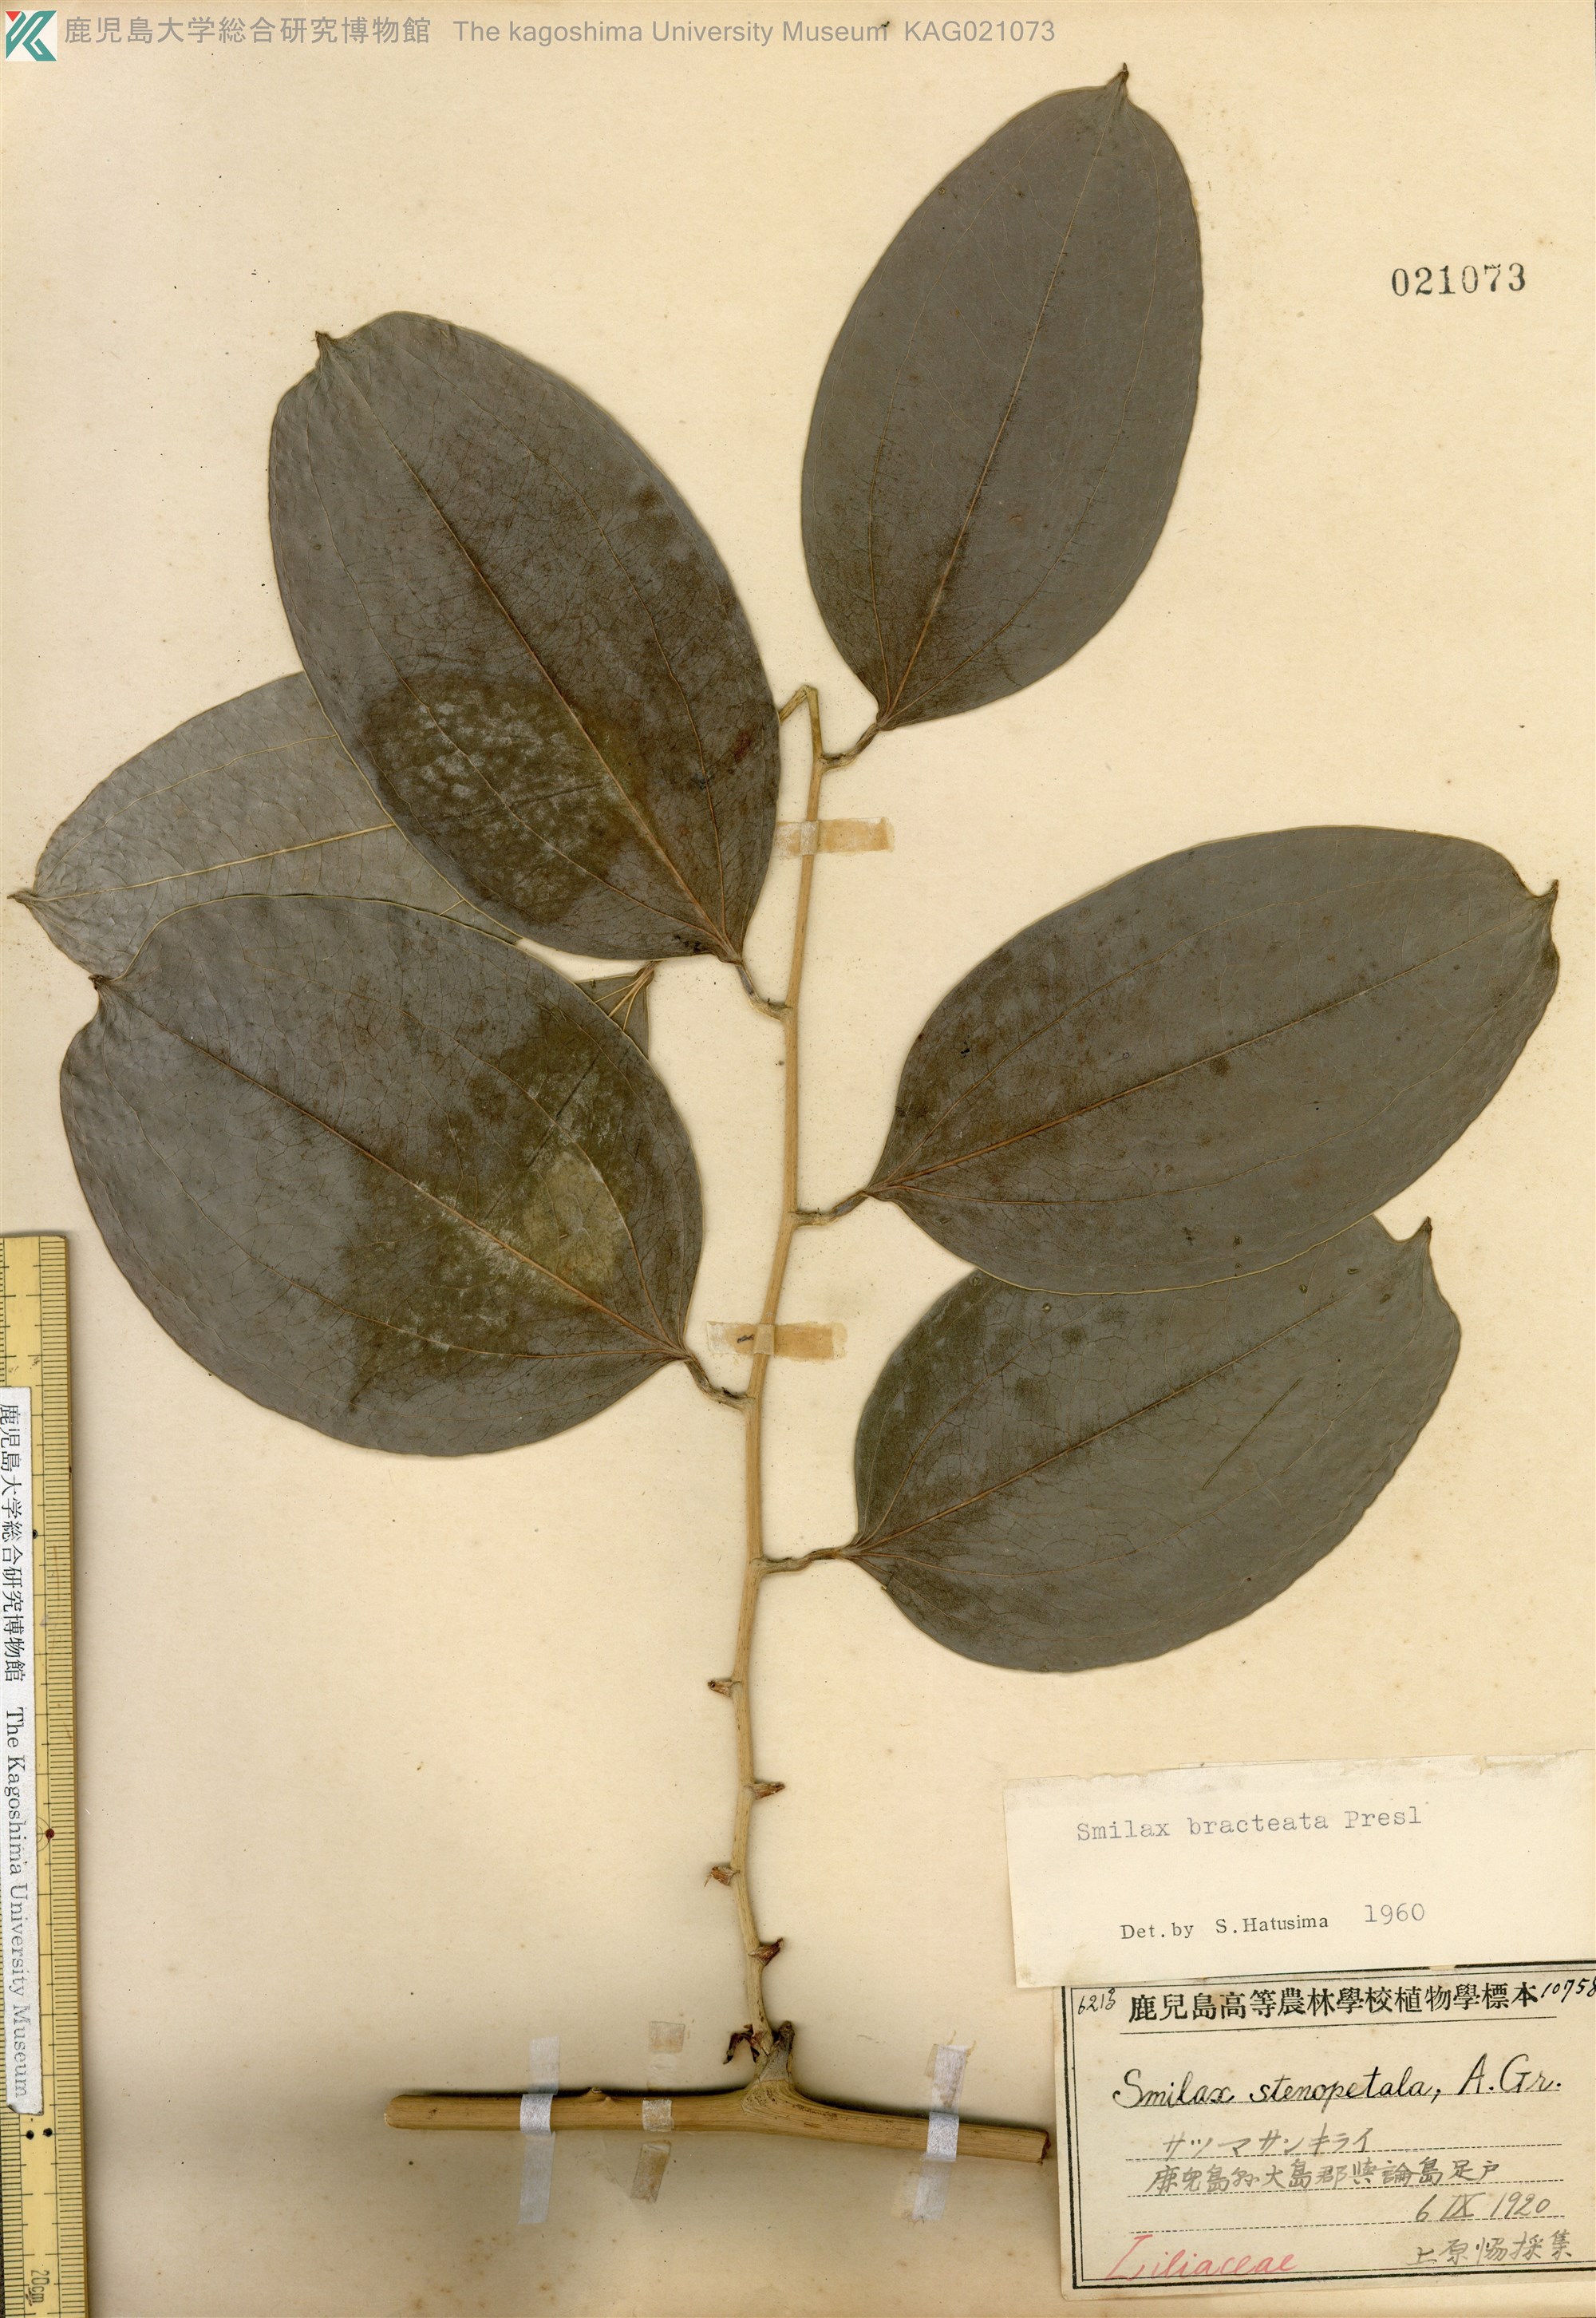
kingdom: Plantae
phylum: Tracheophyta
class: Liliopsida
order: Liliales
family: Smilacaceae
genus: Smilax
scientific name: Smilax bracteata
